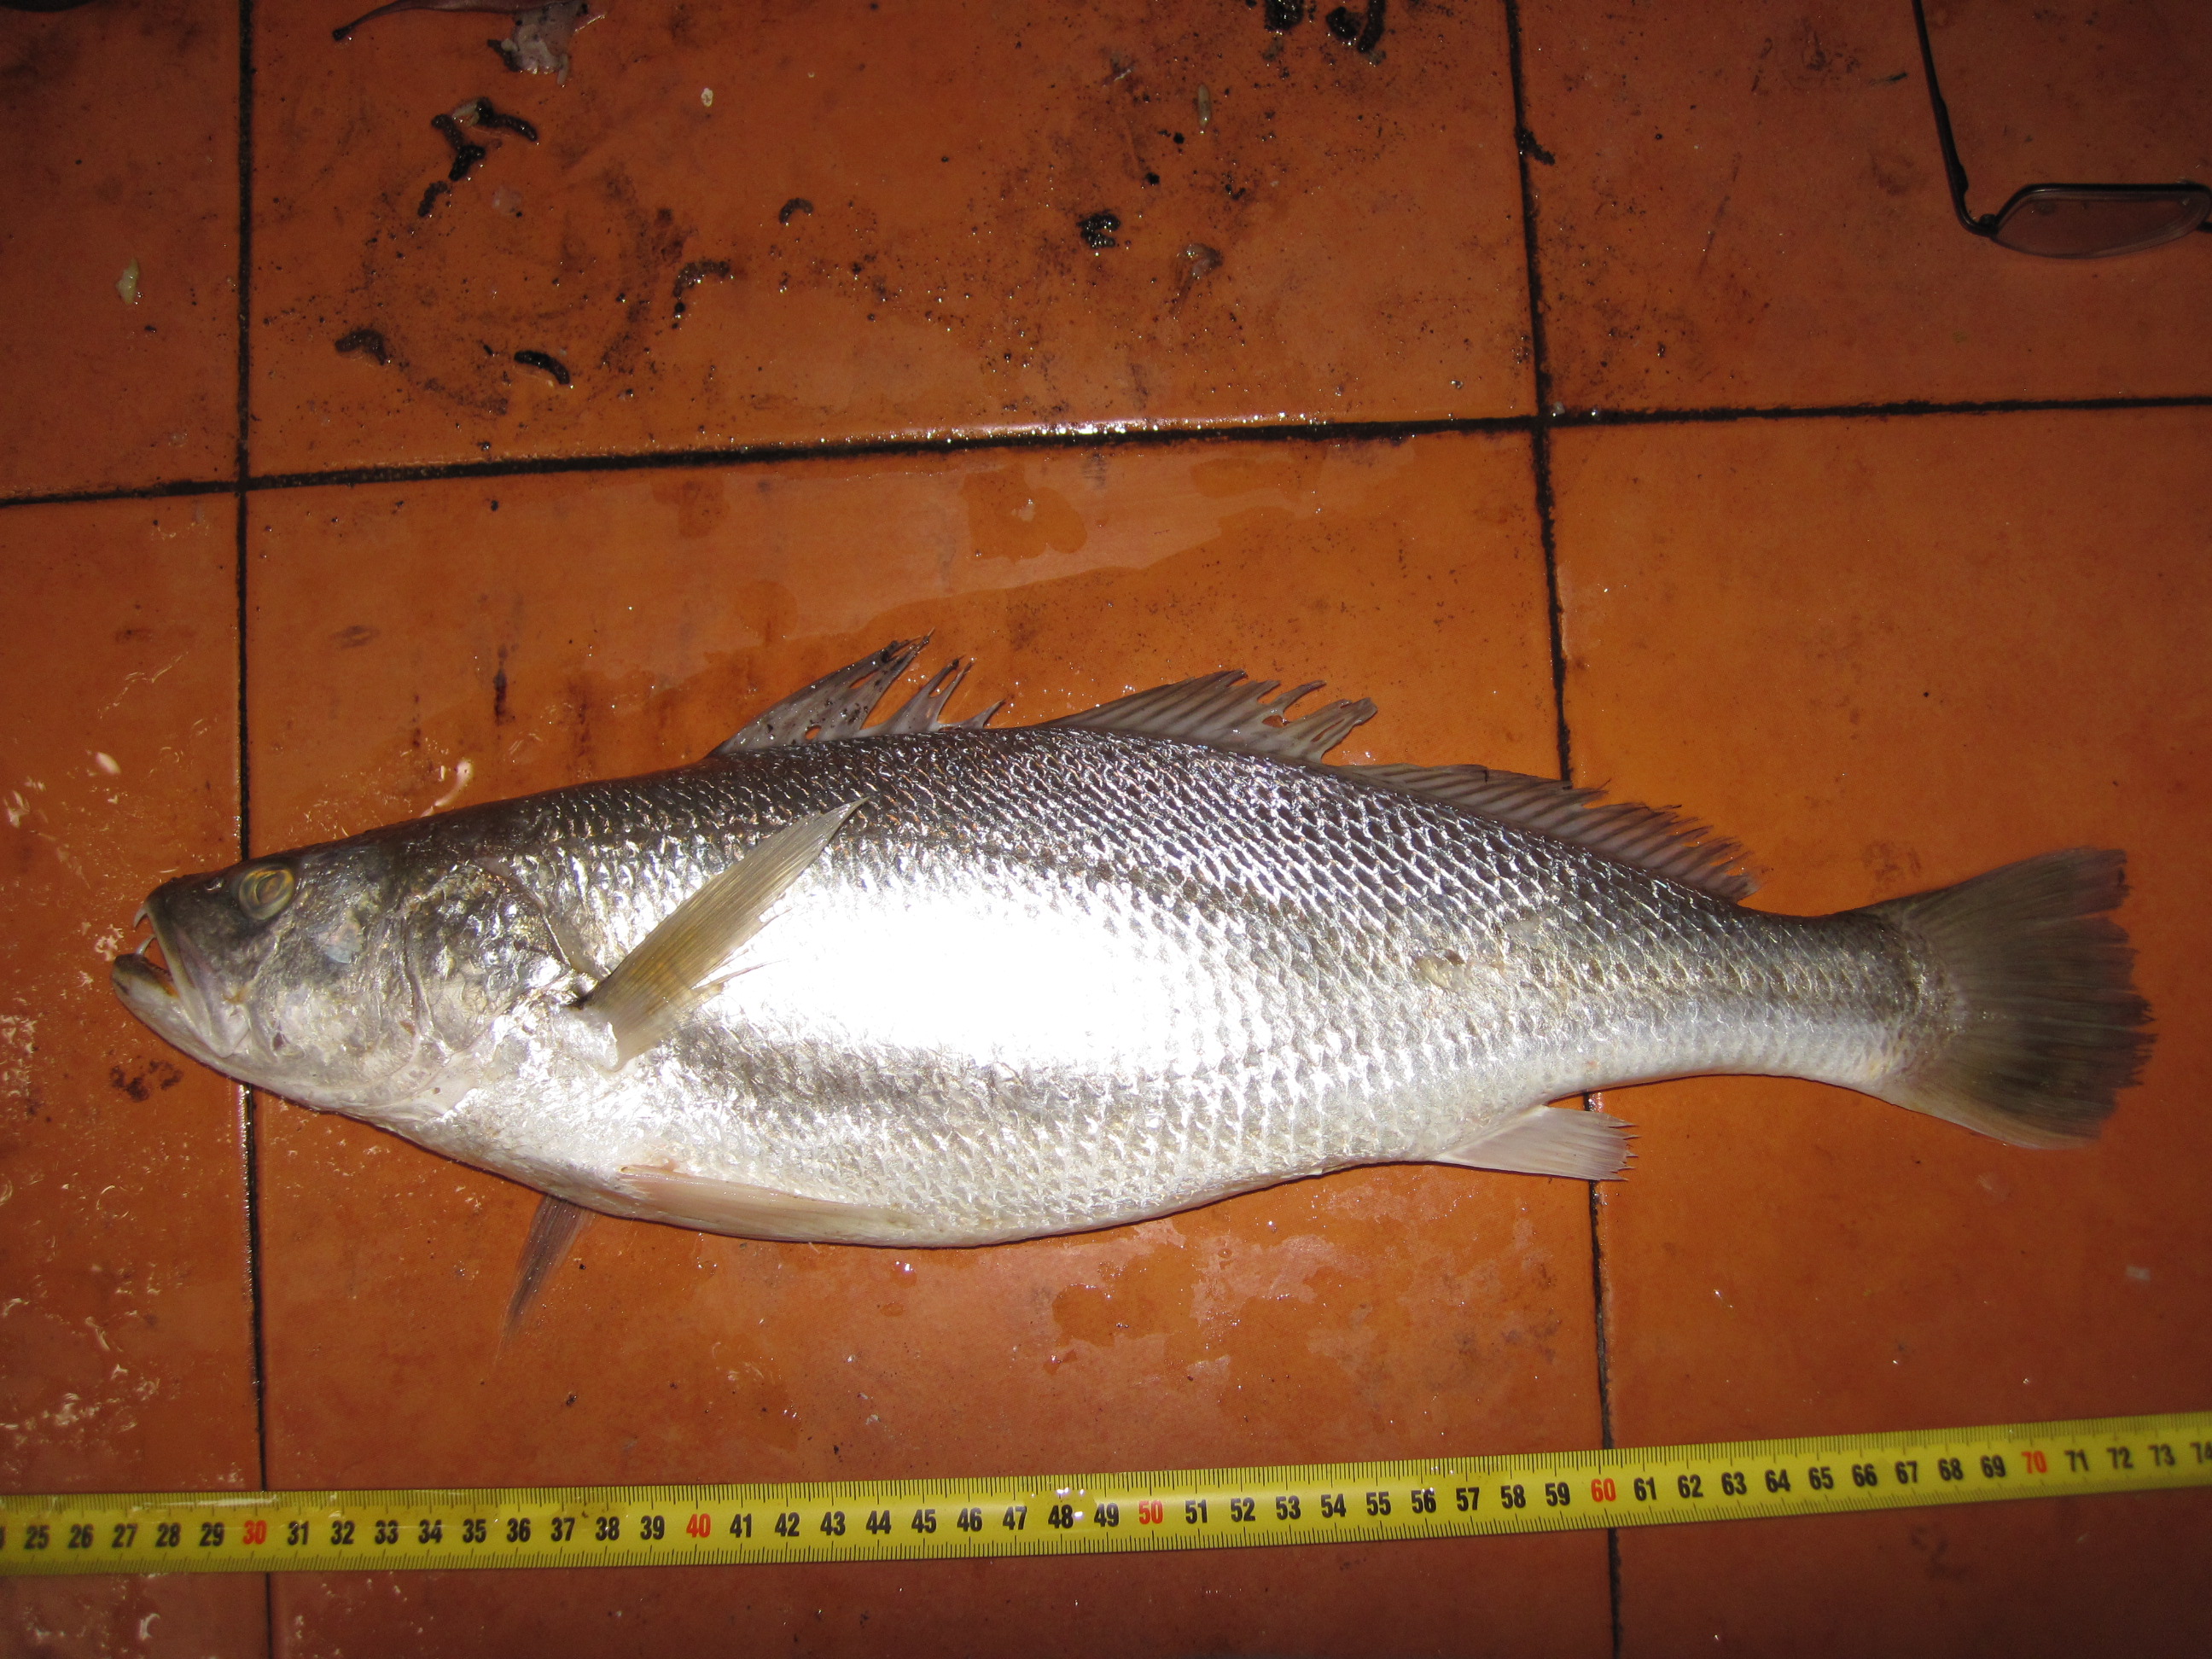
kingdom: Animalia
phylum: Chordata
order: Perciformes
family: Sciaenidae
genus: Otolithes
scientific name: Otolithes ruber
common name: Croaker
